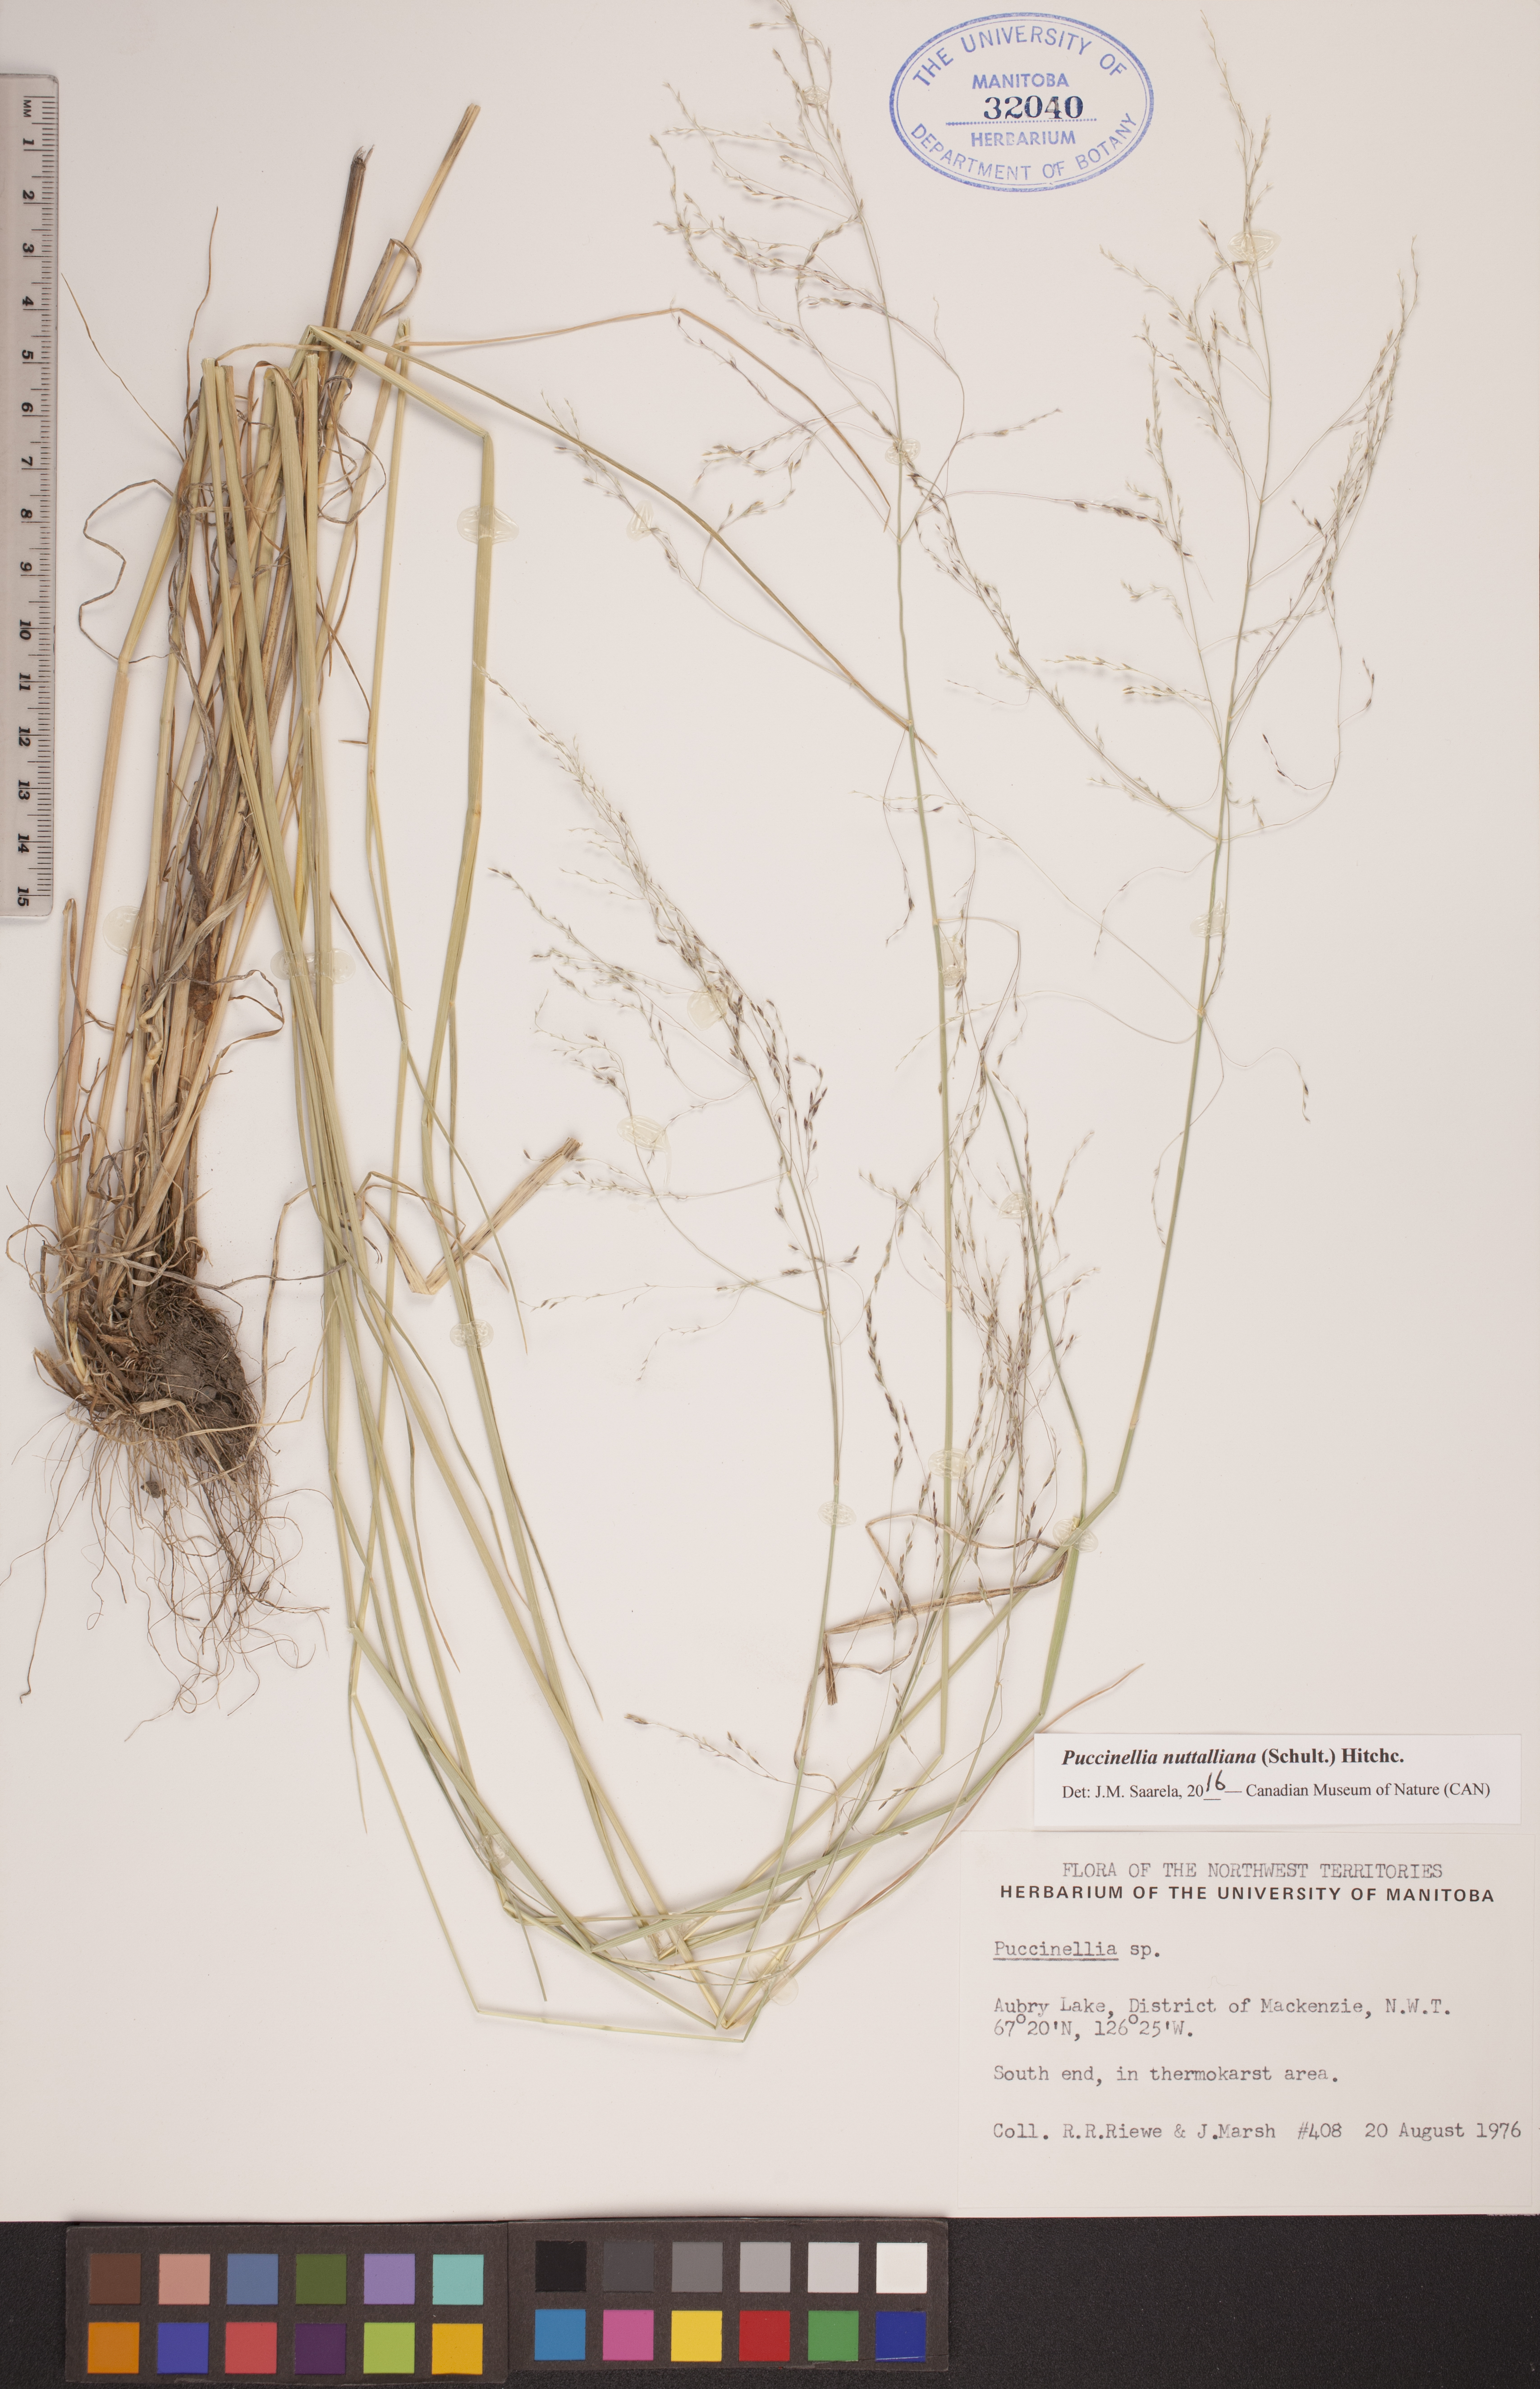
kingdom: Plantae
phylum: Tracheophyta
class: Liliopsida
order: Poales
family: Poaceae
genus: Puccinellia
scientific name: Puccinellia nuttalliana
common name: Nuttall's alkali grass
